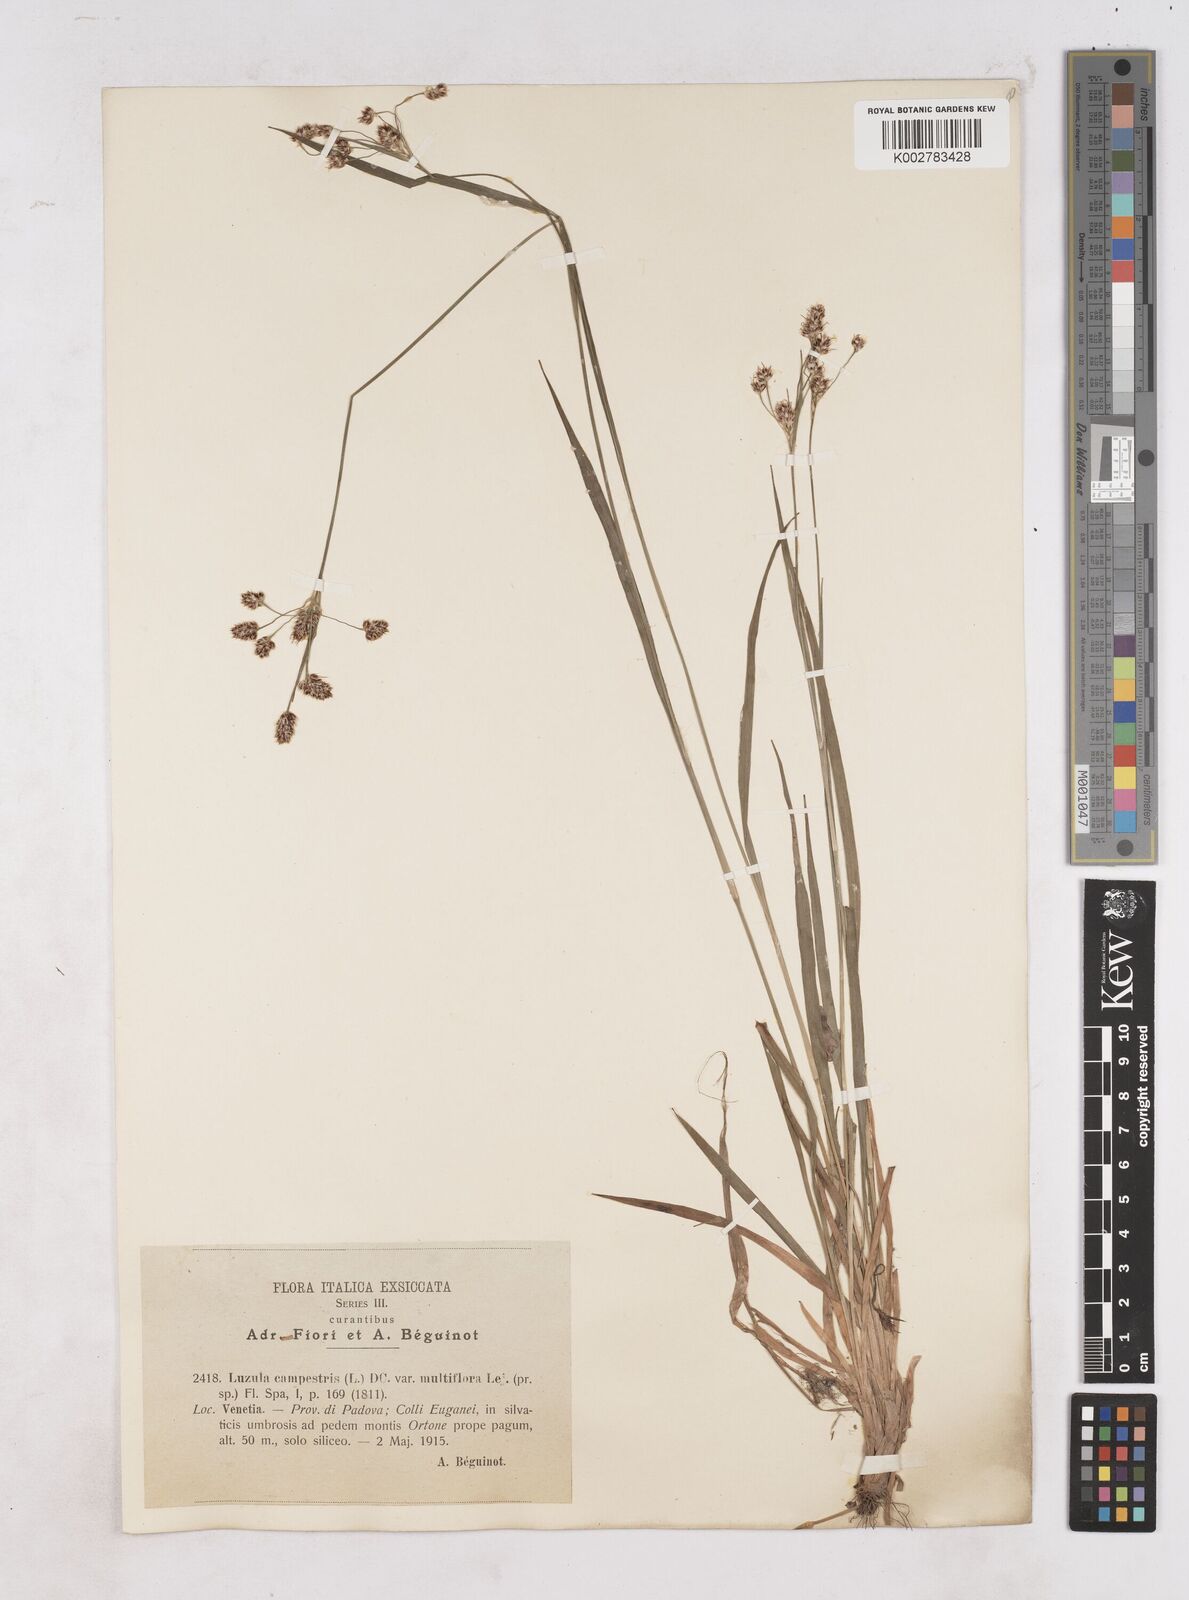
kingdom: Plantae
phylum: Tracheophyta
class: Liliopsida
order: Poales
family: Juncaceae
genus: Luzula
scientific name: Luzula multiflora
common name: Heath wood-rush
